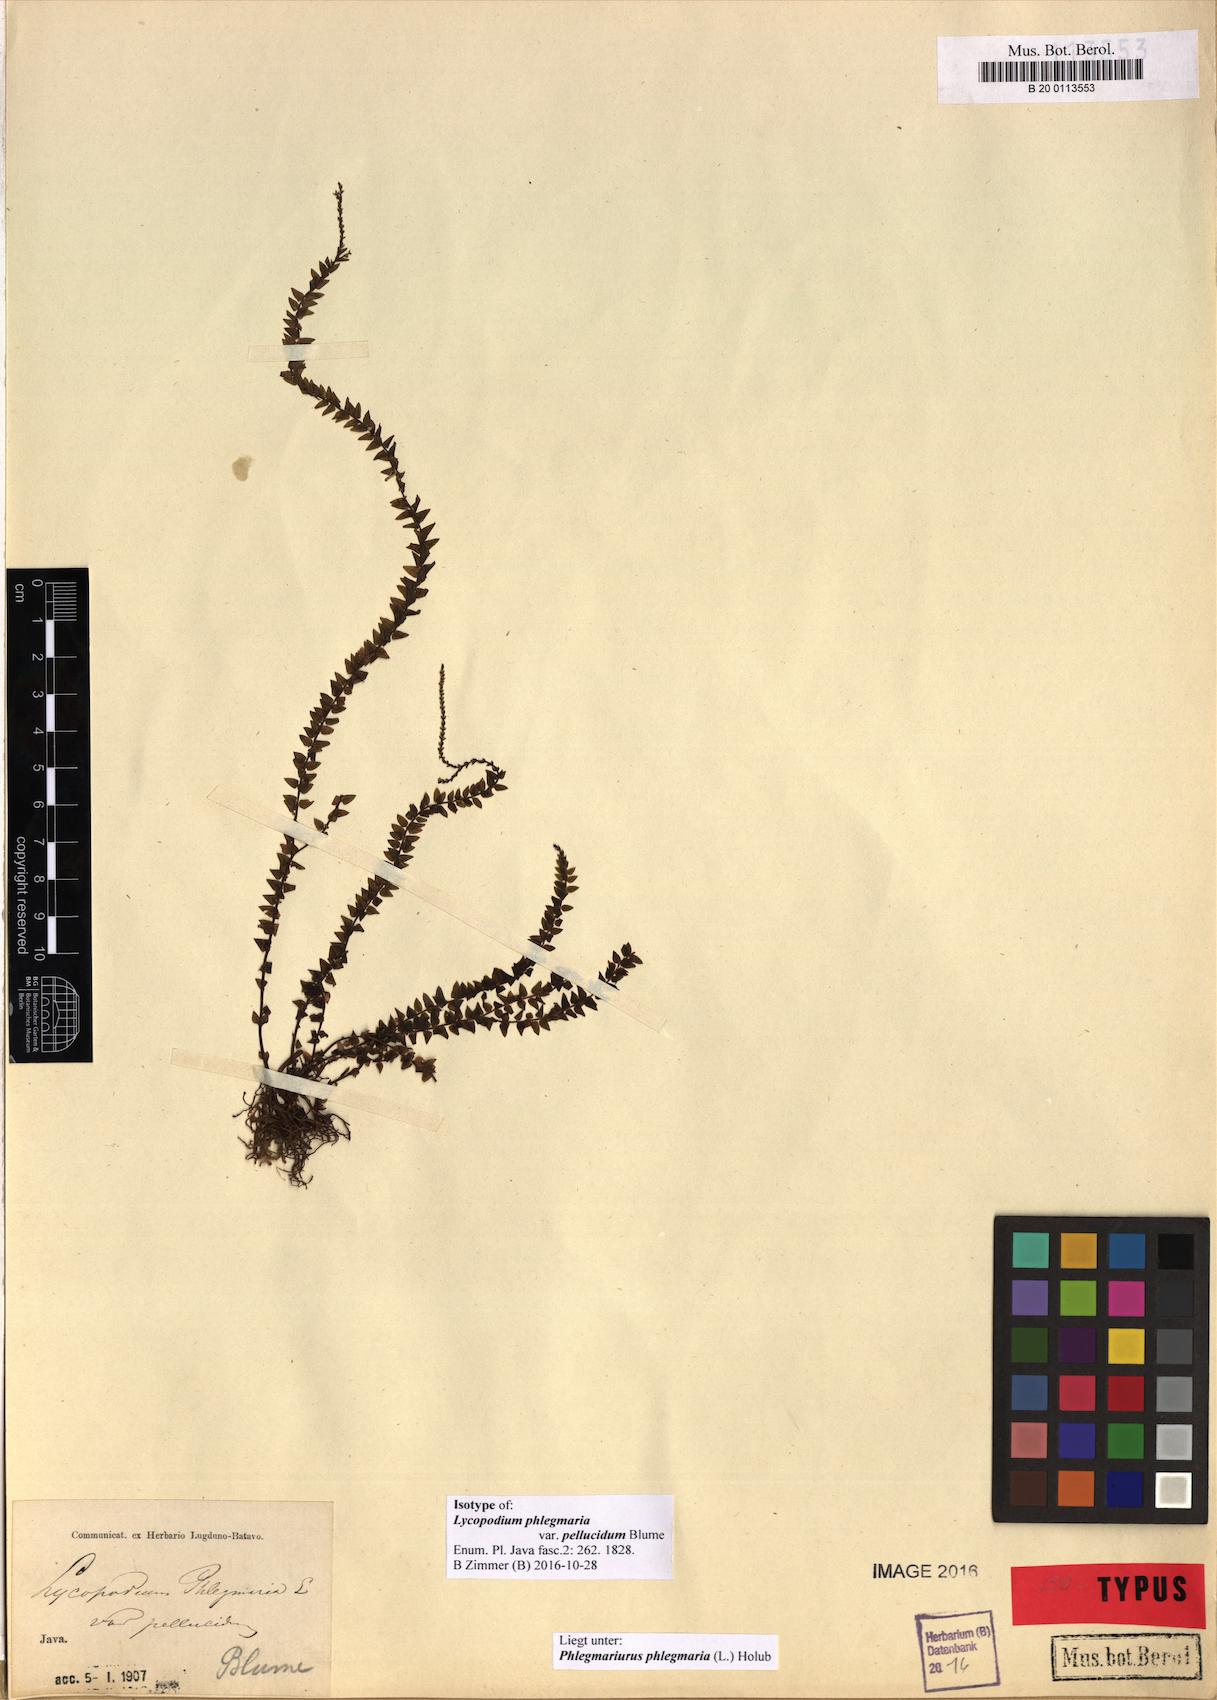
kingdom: Plantae
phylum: Tracheophyta
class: Lycopodiopsida
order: Lycopodiales
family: Lycopodiaceae
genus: Phlegmariurus
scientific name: Phlegmariurus phlegmaria
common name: Coarse tassel-fern
